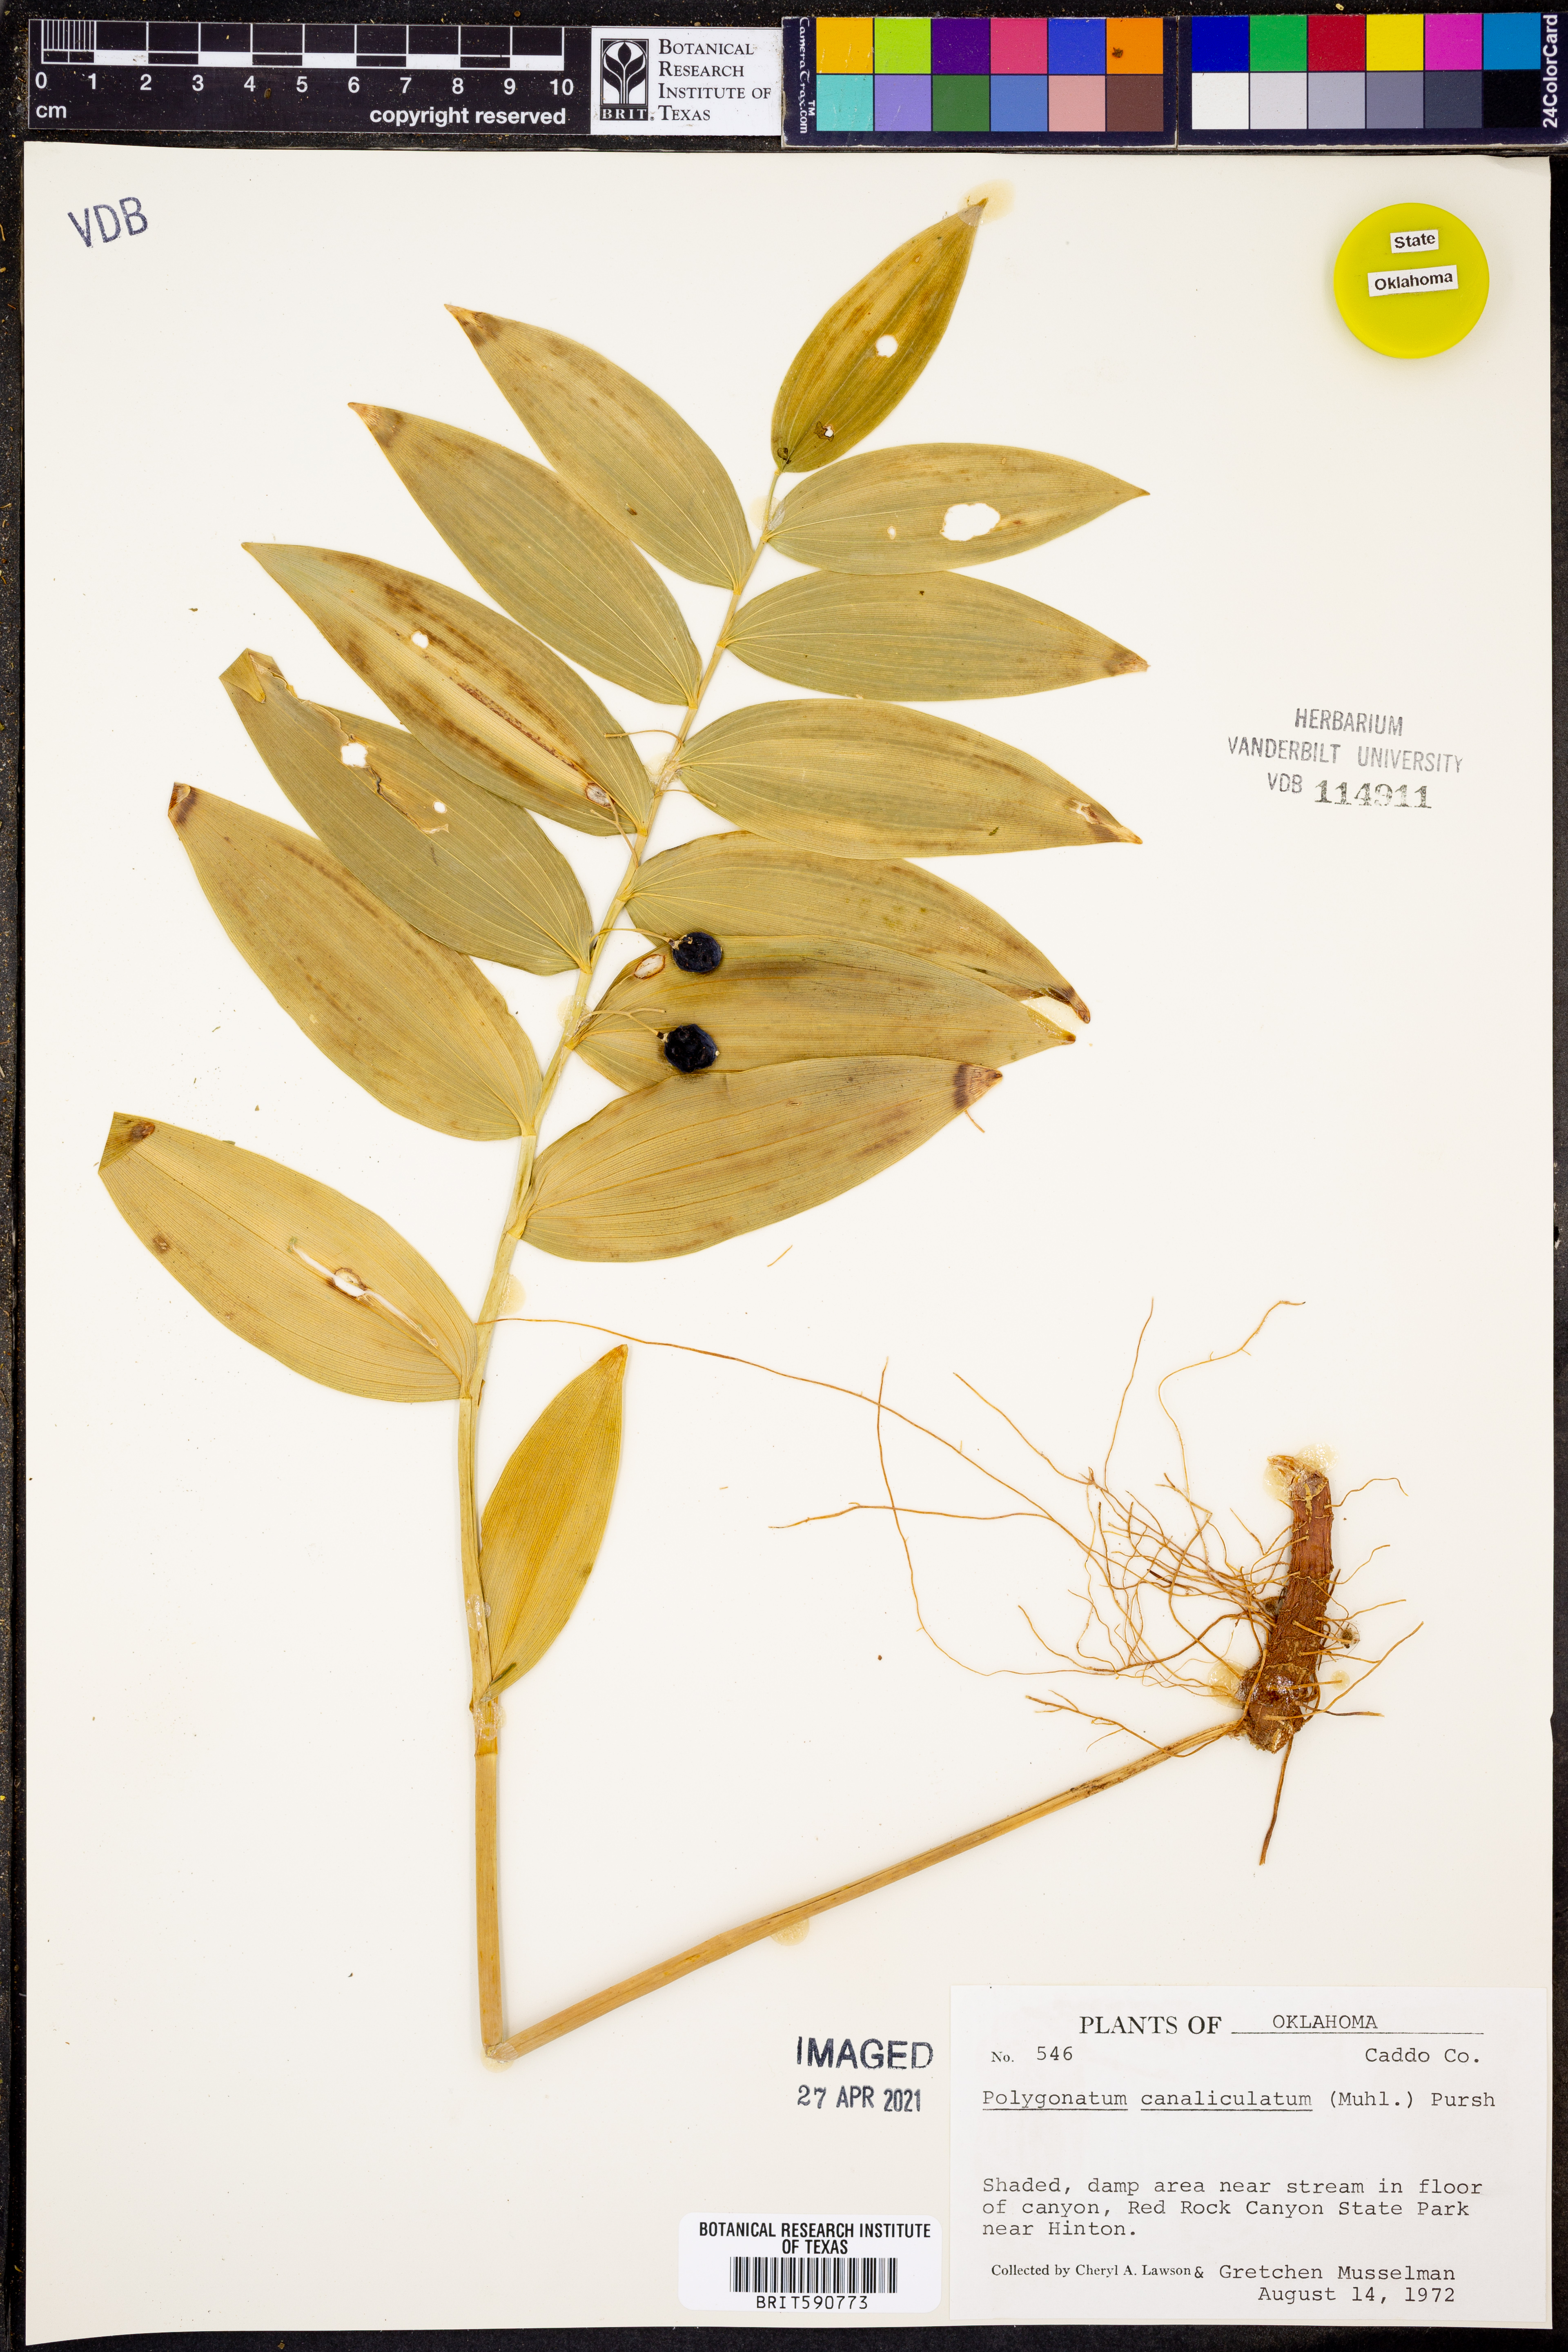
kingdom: Plantae
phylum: Tracheophyta
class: Liliopsida
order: Asparagales
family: Asparagaceae
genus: Polygonatum
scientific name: Polygonatum biflorum
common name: American solomon's-seal
